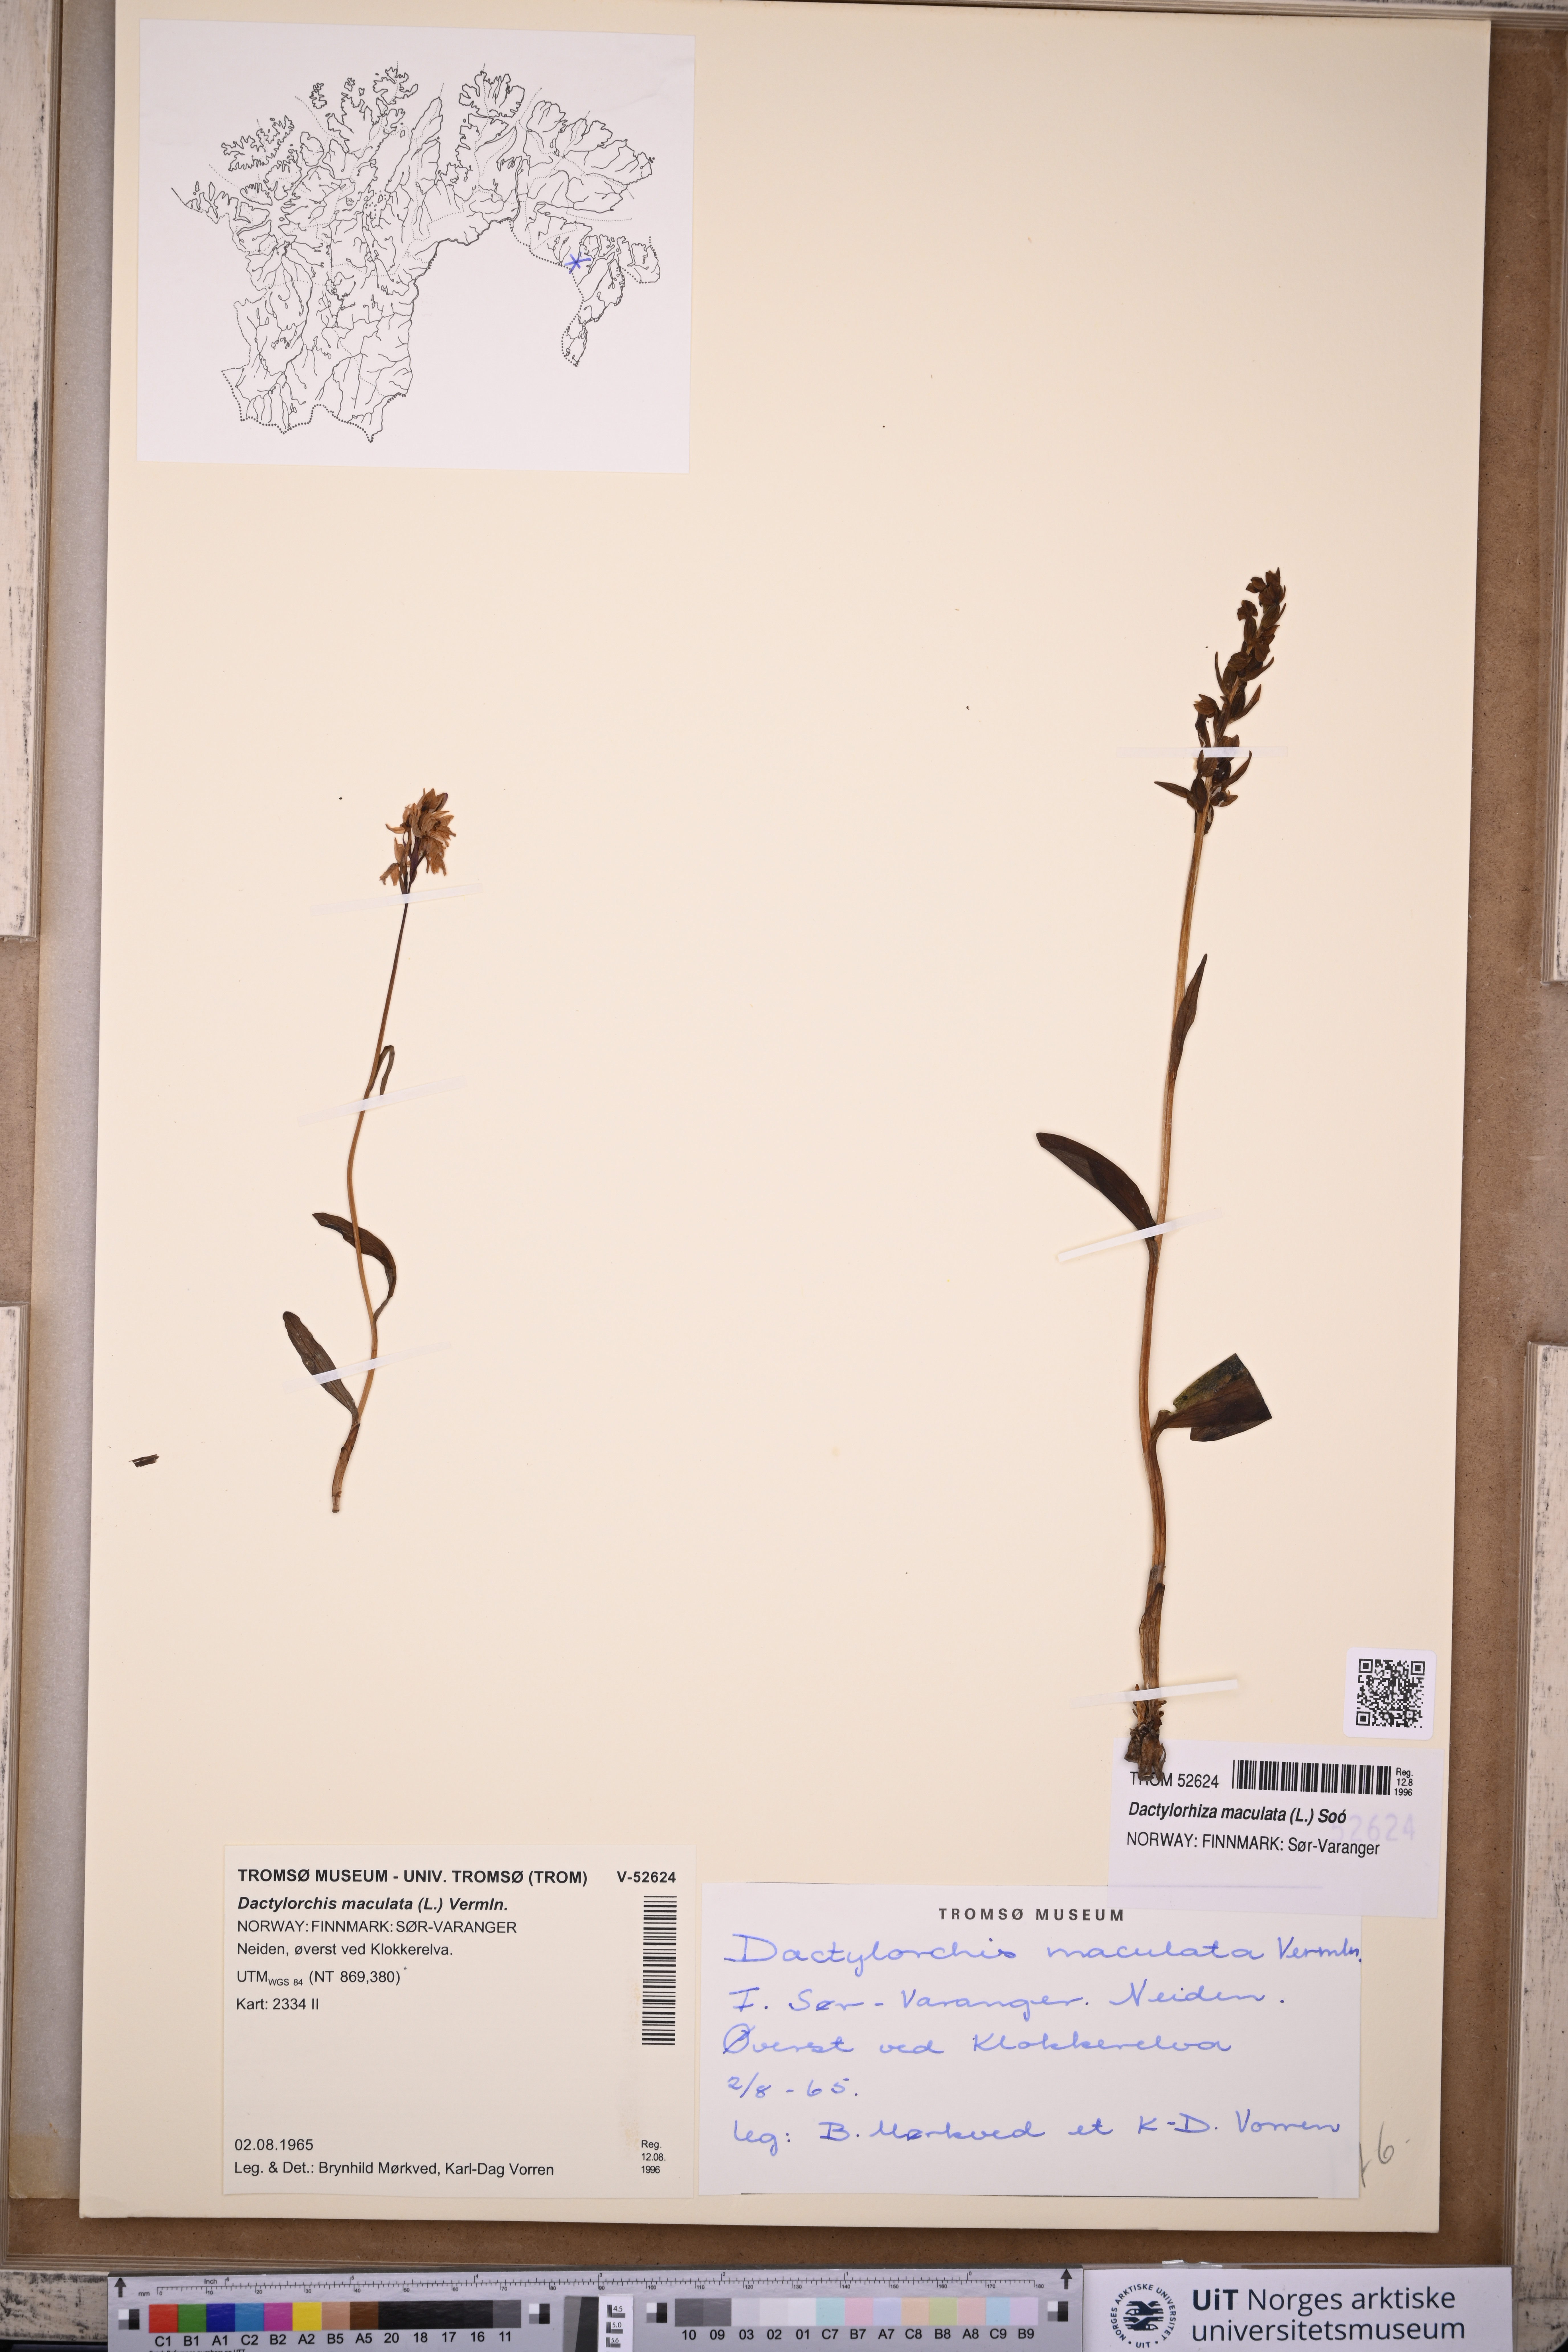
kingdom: Plantae
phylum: Tracheophyta
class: Liliopsida
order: Asparagales
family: Orchidaceae
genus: Dactylorhiza
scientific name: Dactylorhiza maculata
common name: Heath spotted-orchid
